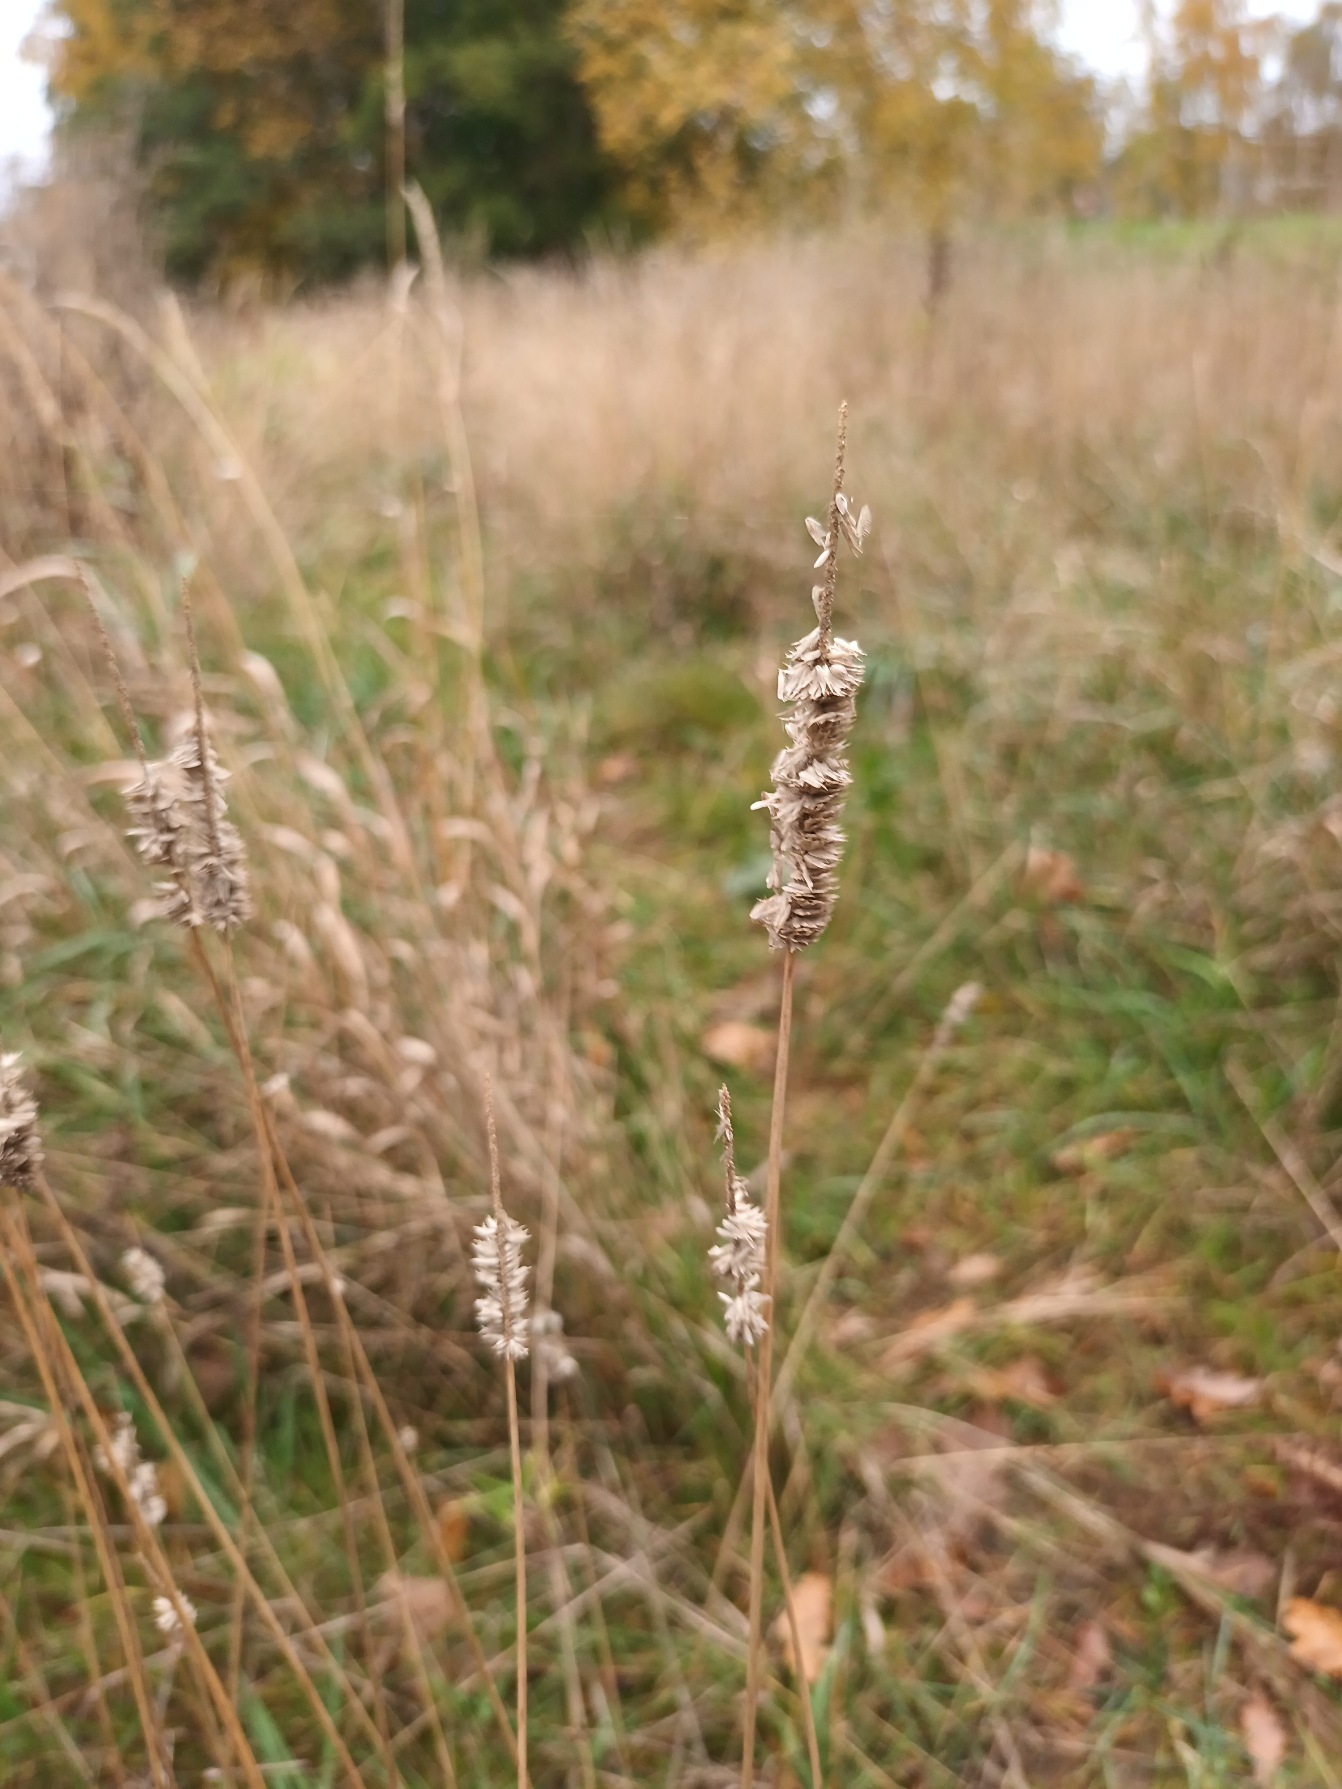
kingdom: Plantae
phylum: Tracheophyta
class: Liliopsida
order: Poales
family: Poaceae
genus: Phleum
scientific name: Phleum pratense
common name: Eng-rottehale
